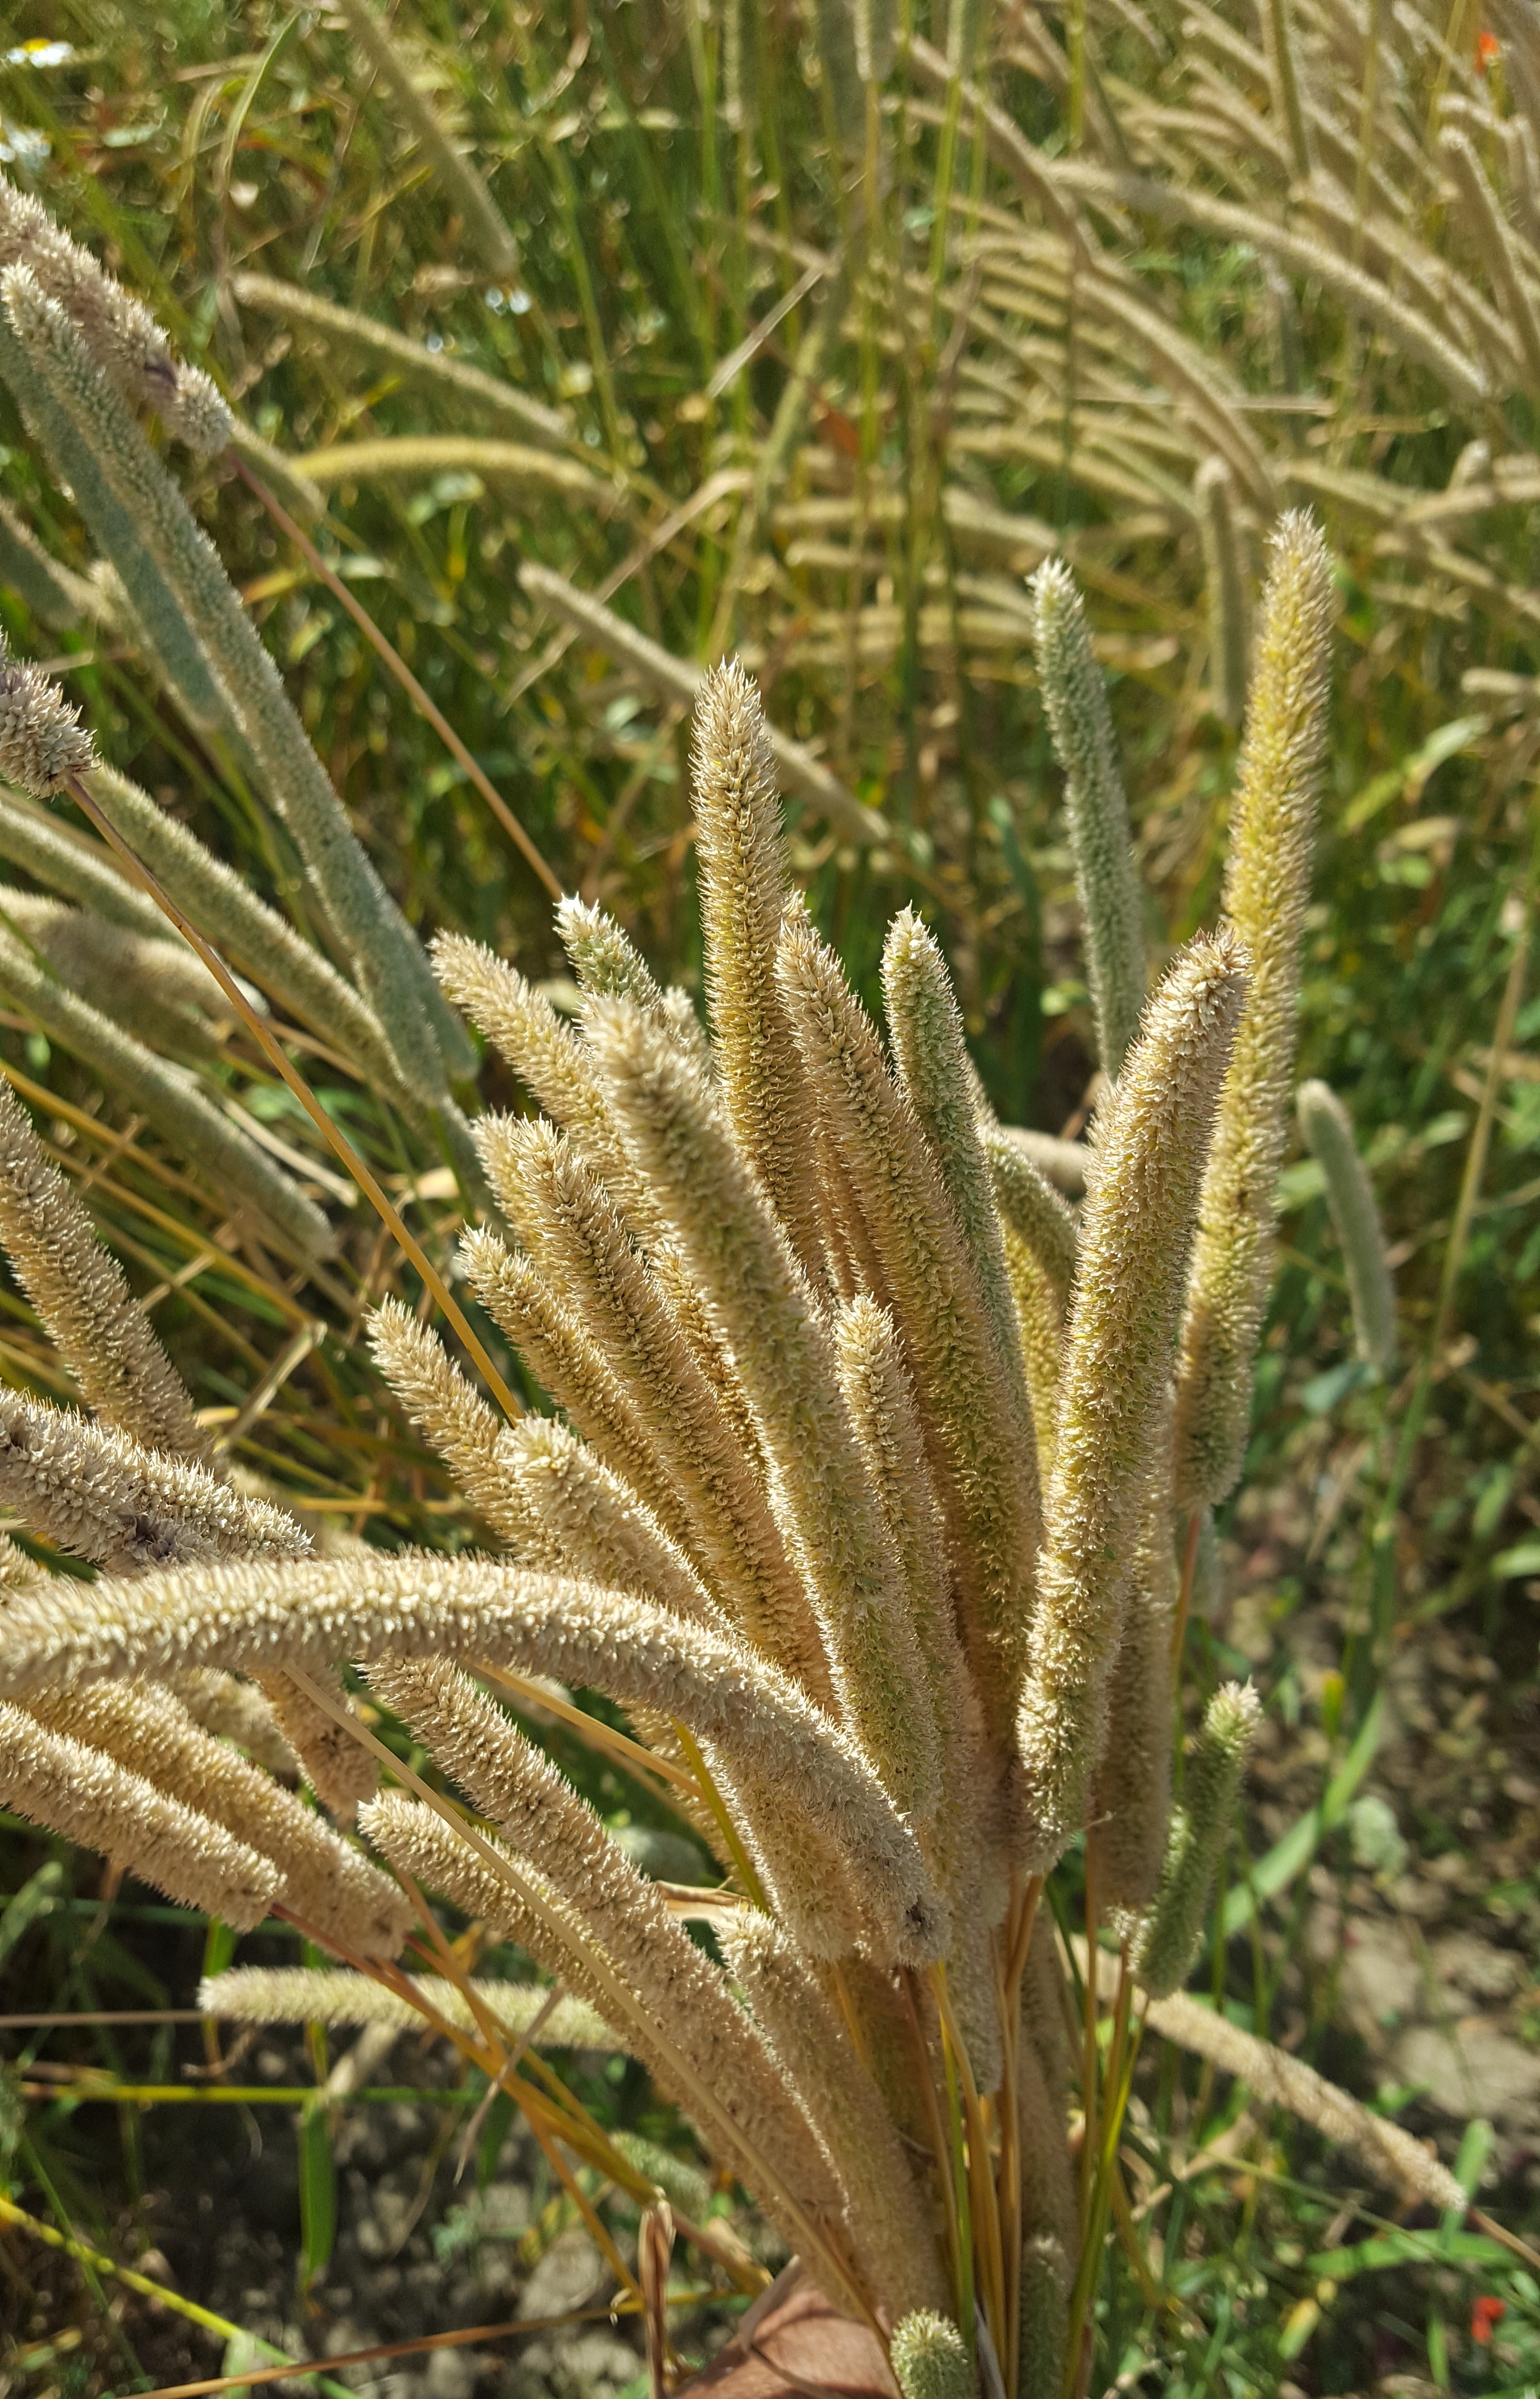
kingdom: Plantae
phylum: Tracheophyta
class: Liliopsida
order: Poales
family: Poaceae
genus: Phleum
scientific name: Phleum pratense
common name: Timothy grass
